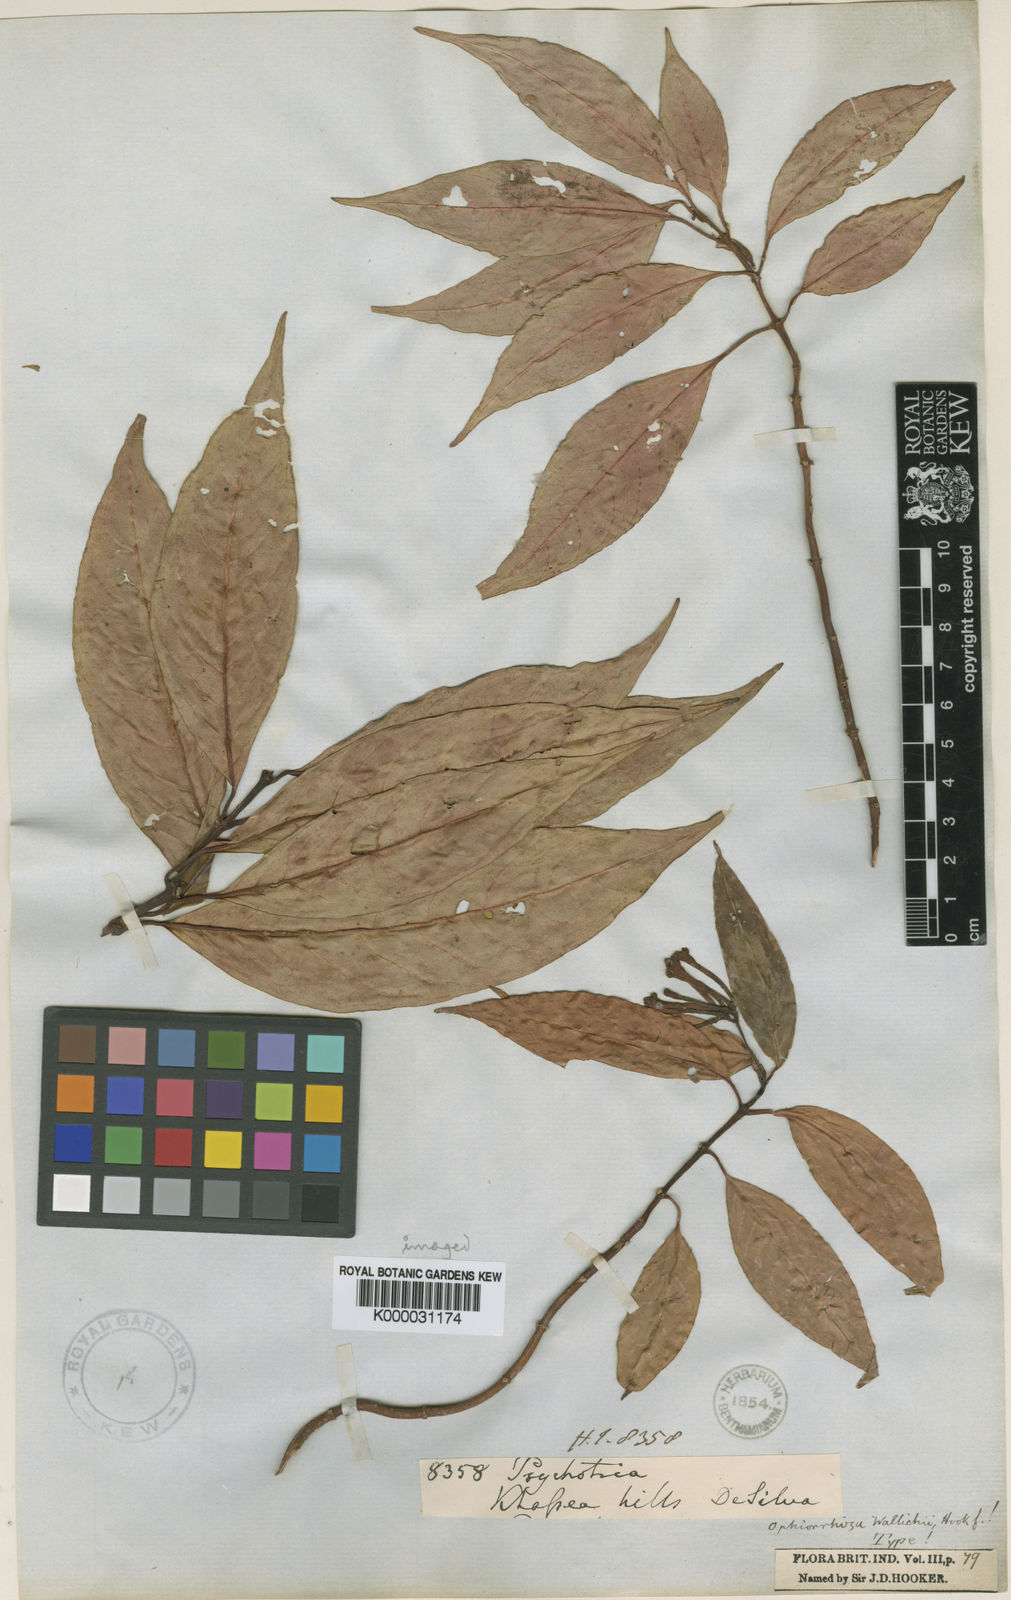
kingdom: Plantae
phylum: Tracheophyta
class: Magnoliopsida
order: Gentianales
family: Rubiaceae
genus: Ophiorrhiza
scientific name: Ophiorrhiza
